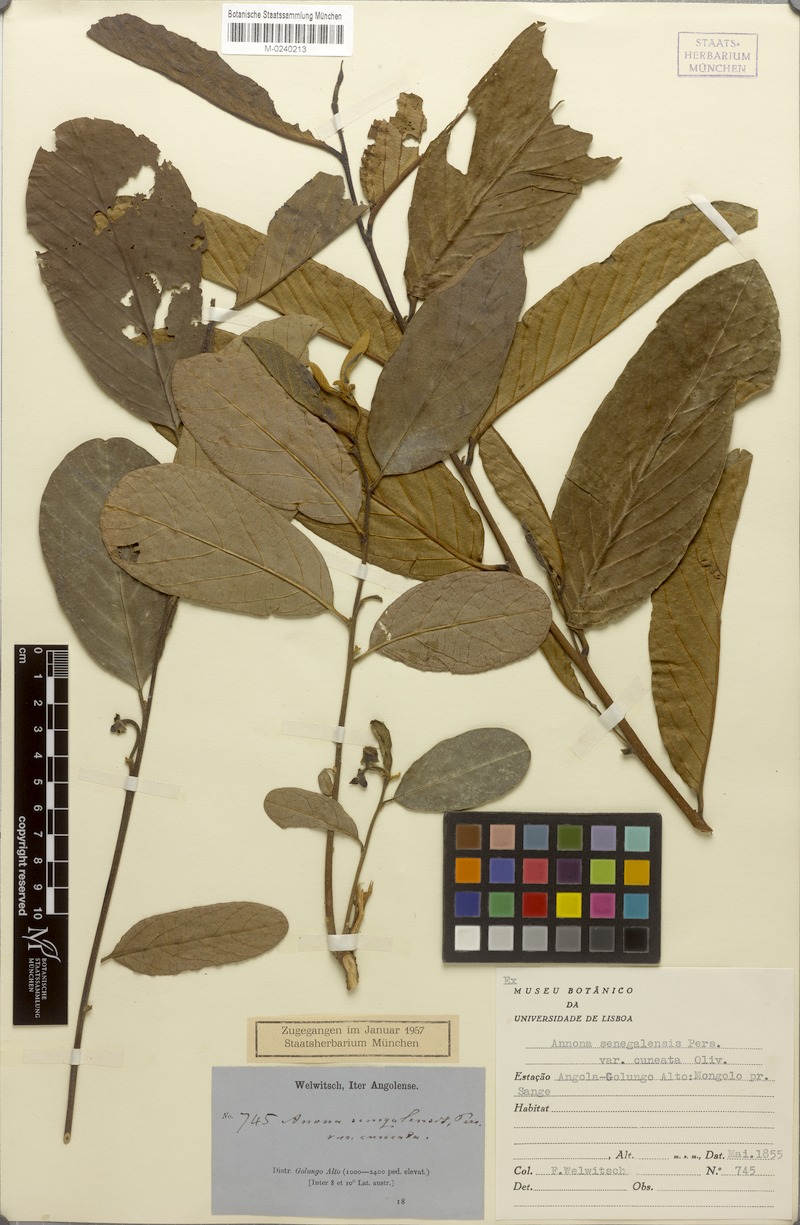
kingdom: Plantae
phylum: Tracheophyta
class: Magnoliopsida
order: Magnoliales
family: Annonaceae
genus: Annona
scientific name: Annona stenophylla
